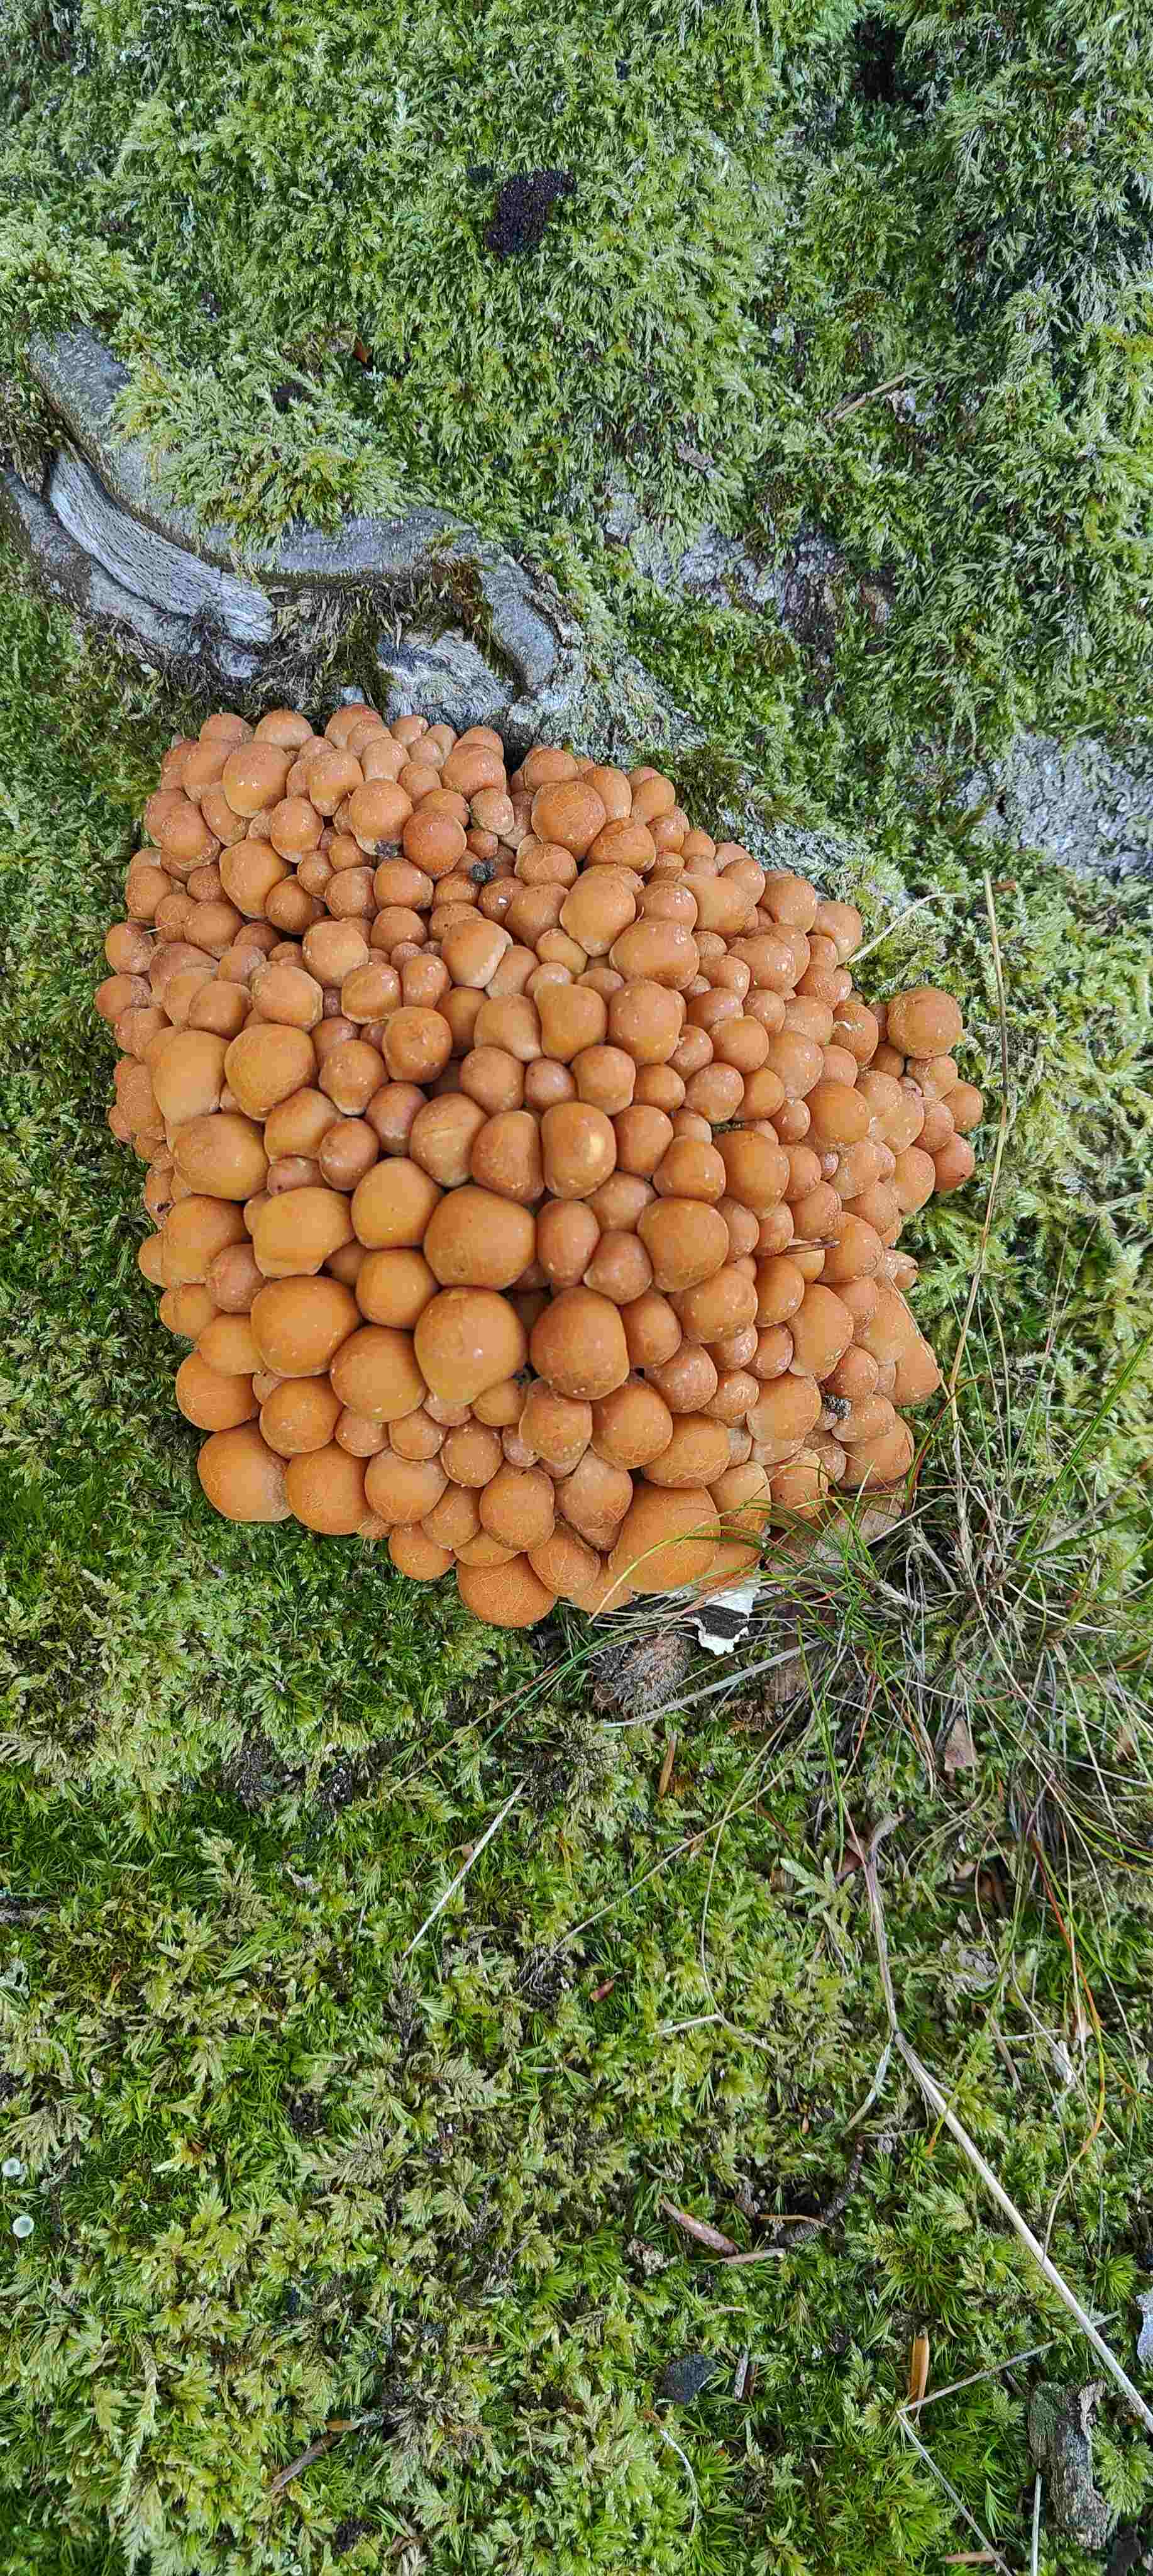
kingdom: Fungi
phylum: Basidiomycota
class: Agaricomycetes
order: Agaricales
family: Strophariaceae
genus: Hypholoma
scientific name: Hypholoma fasciculare
